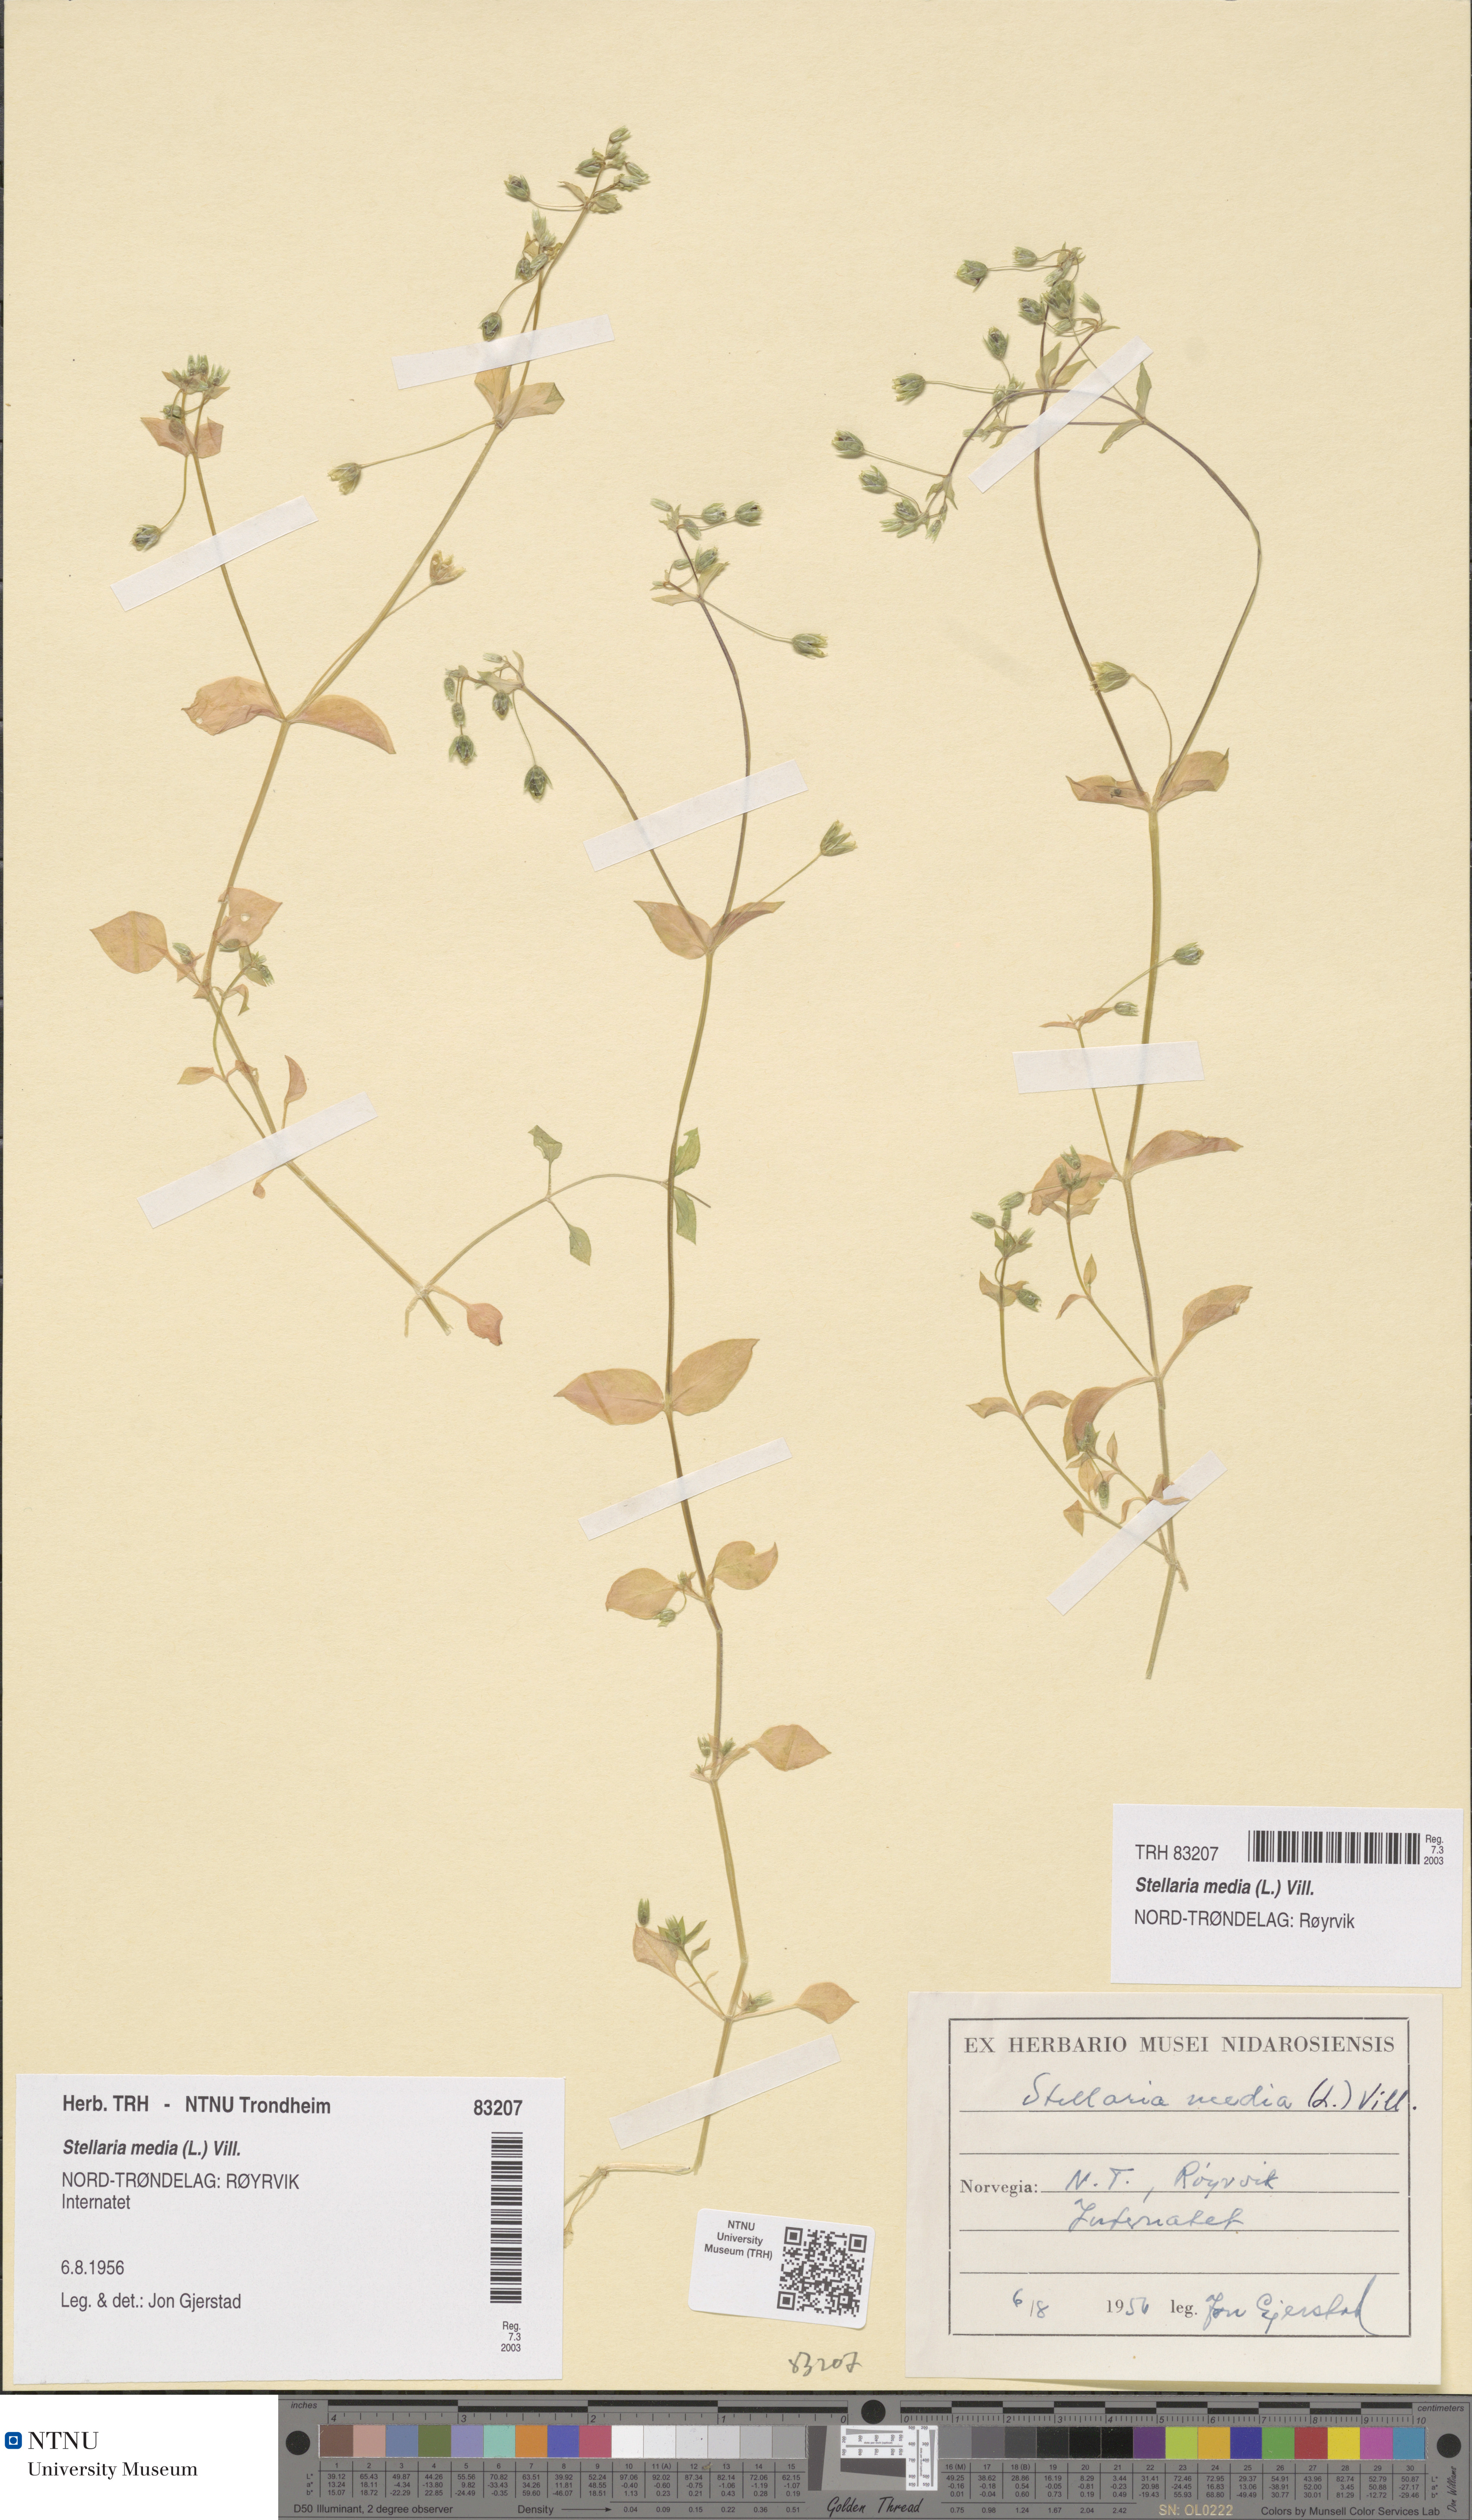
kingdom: Plantae
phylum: Tracheophyta
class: Magnoliopsida
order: Caryophyllales
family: Caryophyllaceae
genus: Stellaria
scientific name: Stellaria media
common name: Common chickweed
